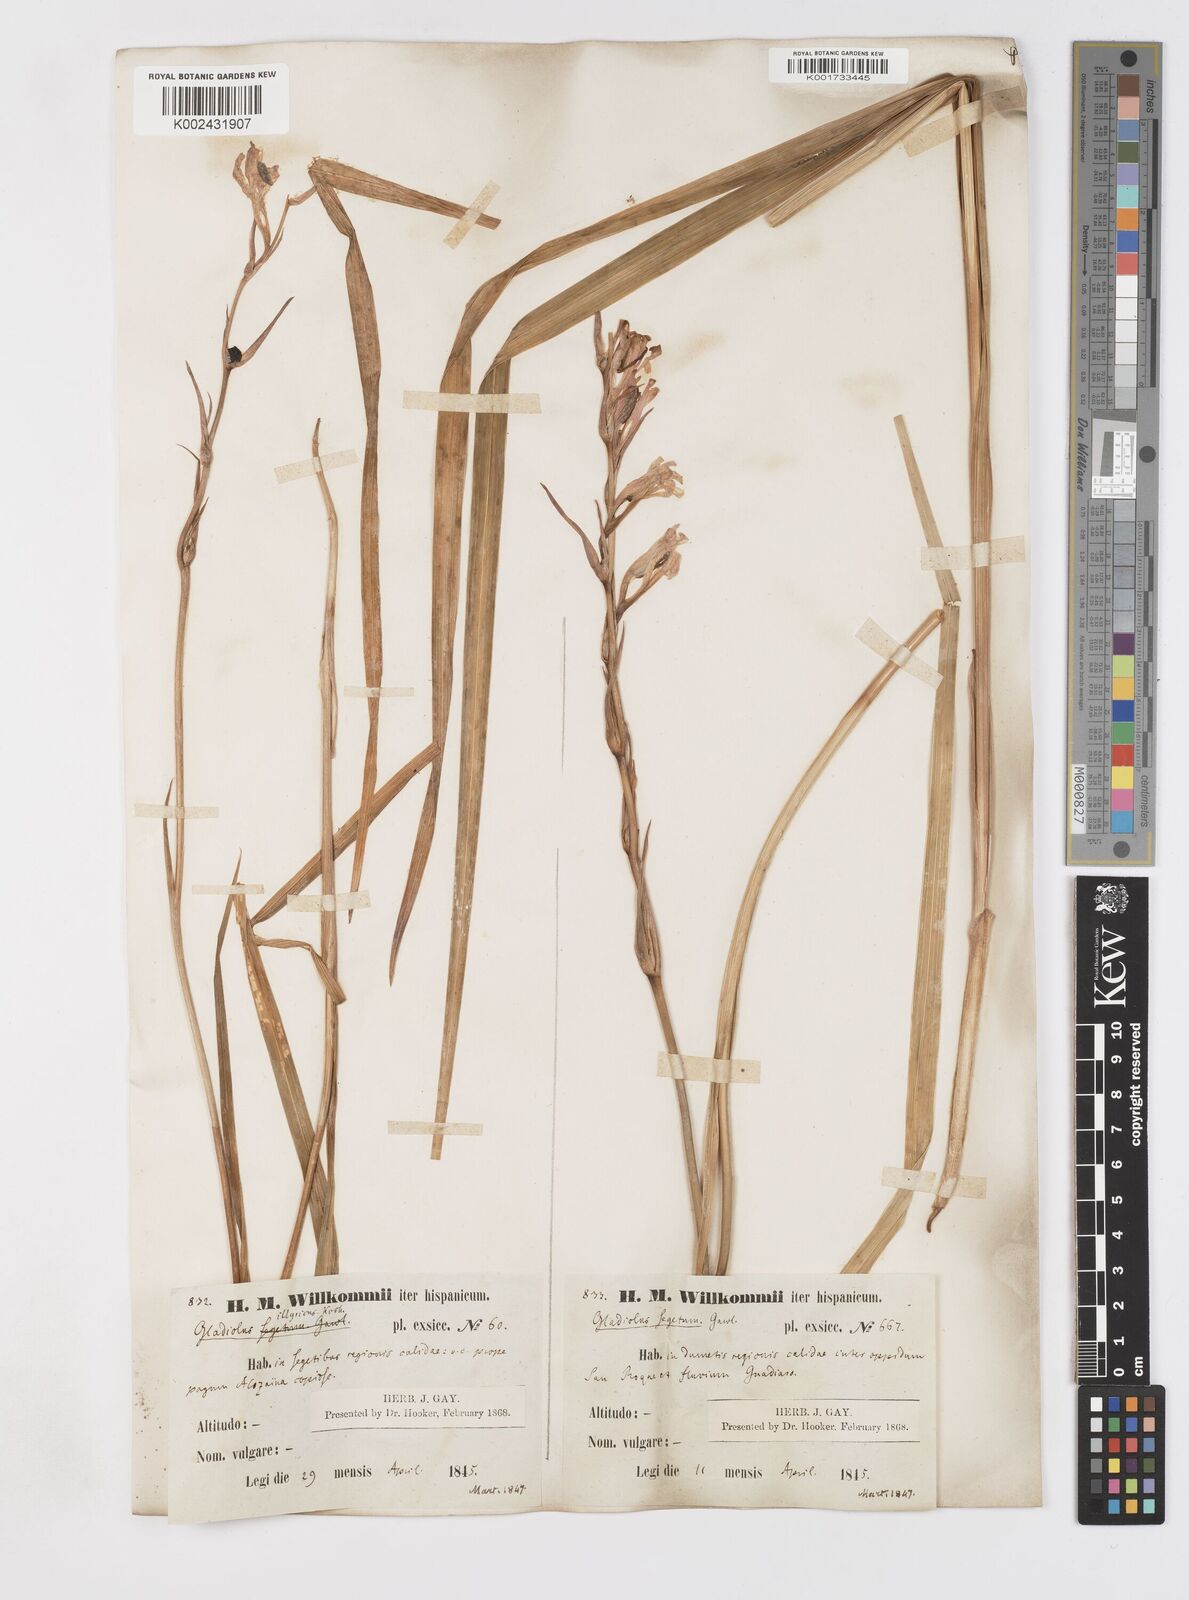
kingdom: Plantae
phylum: Tracheophyta
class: Liliopsida
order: Asparagales
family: Iridaceae
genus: Gladiolus
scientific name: Gladiolus italicus
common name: Field gladiolus
